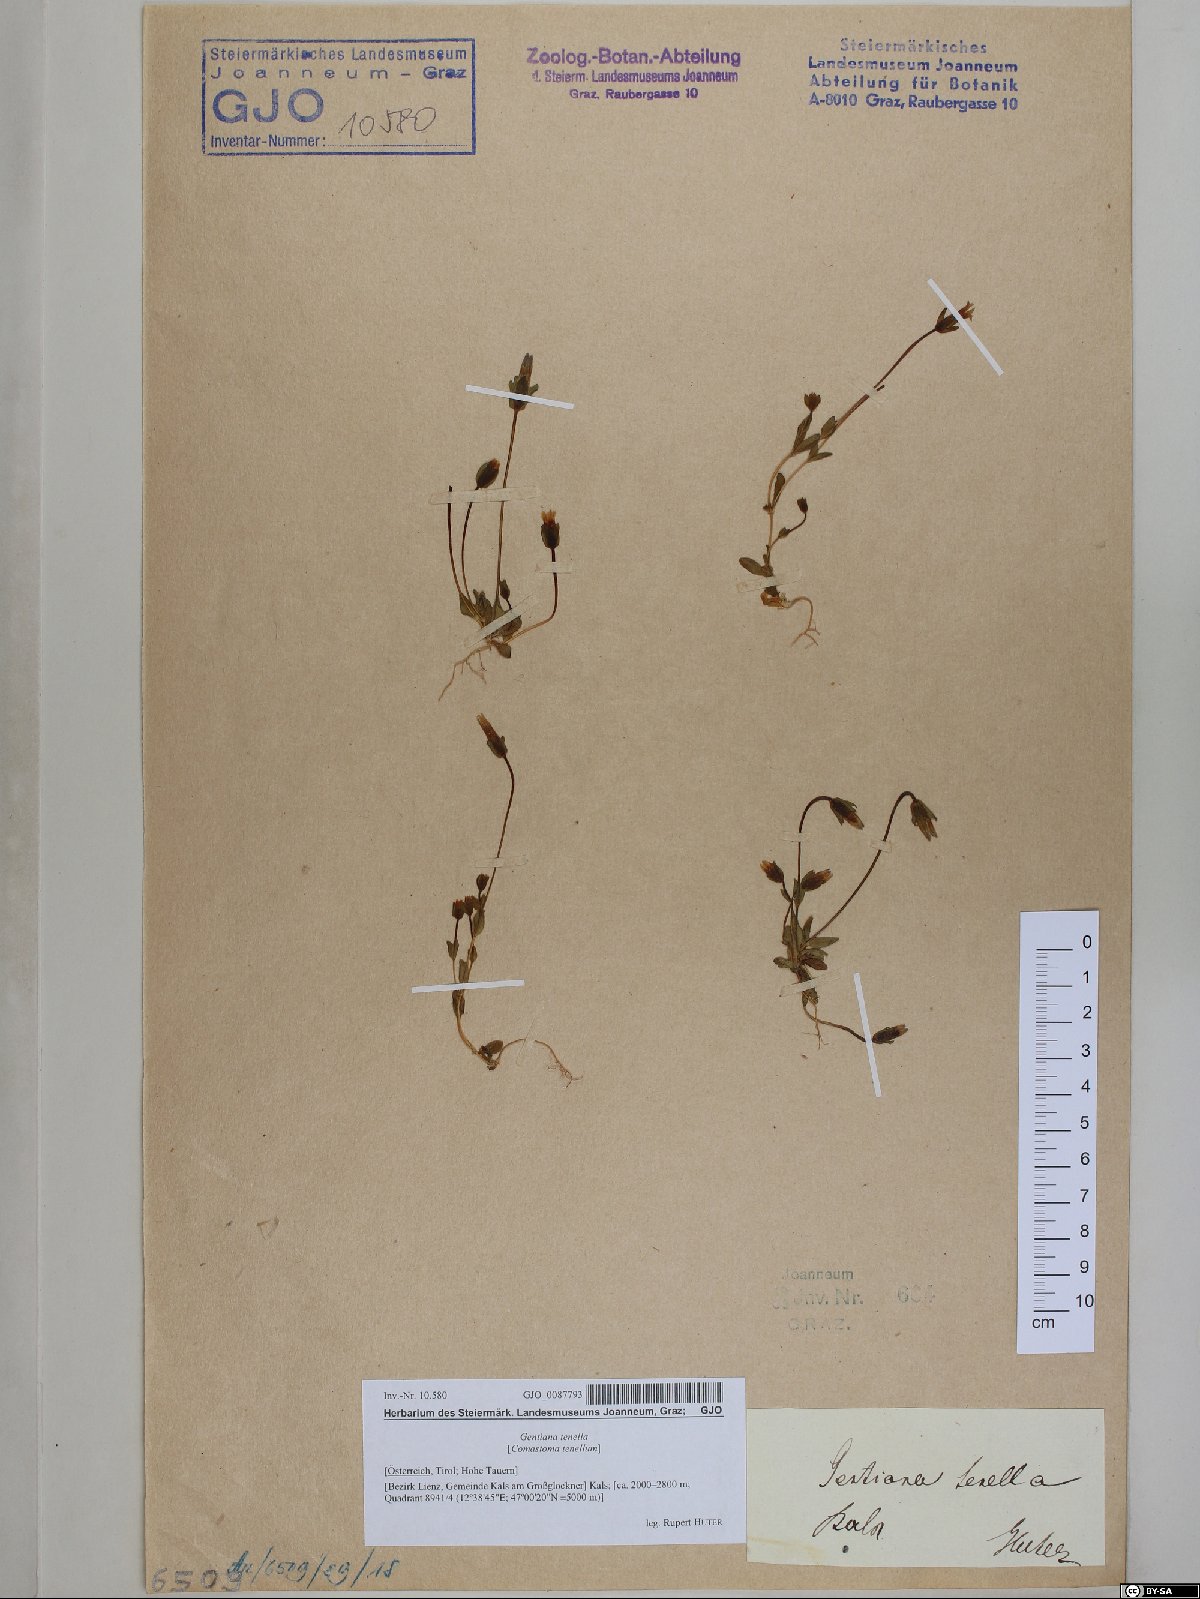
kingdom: Plantae
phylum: Tracheophyta
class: Magnoliopsida
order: Gentianales
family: Gentianaceae
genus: Comastoma
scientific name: Comastoma tenellum
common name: Dane's dwarf gentian
